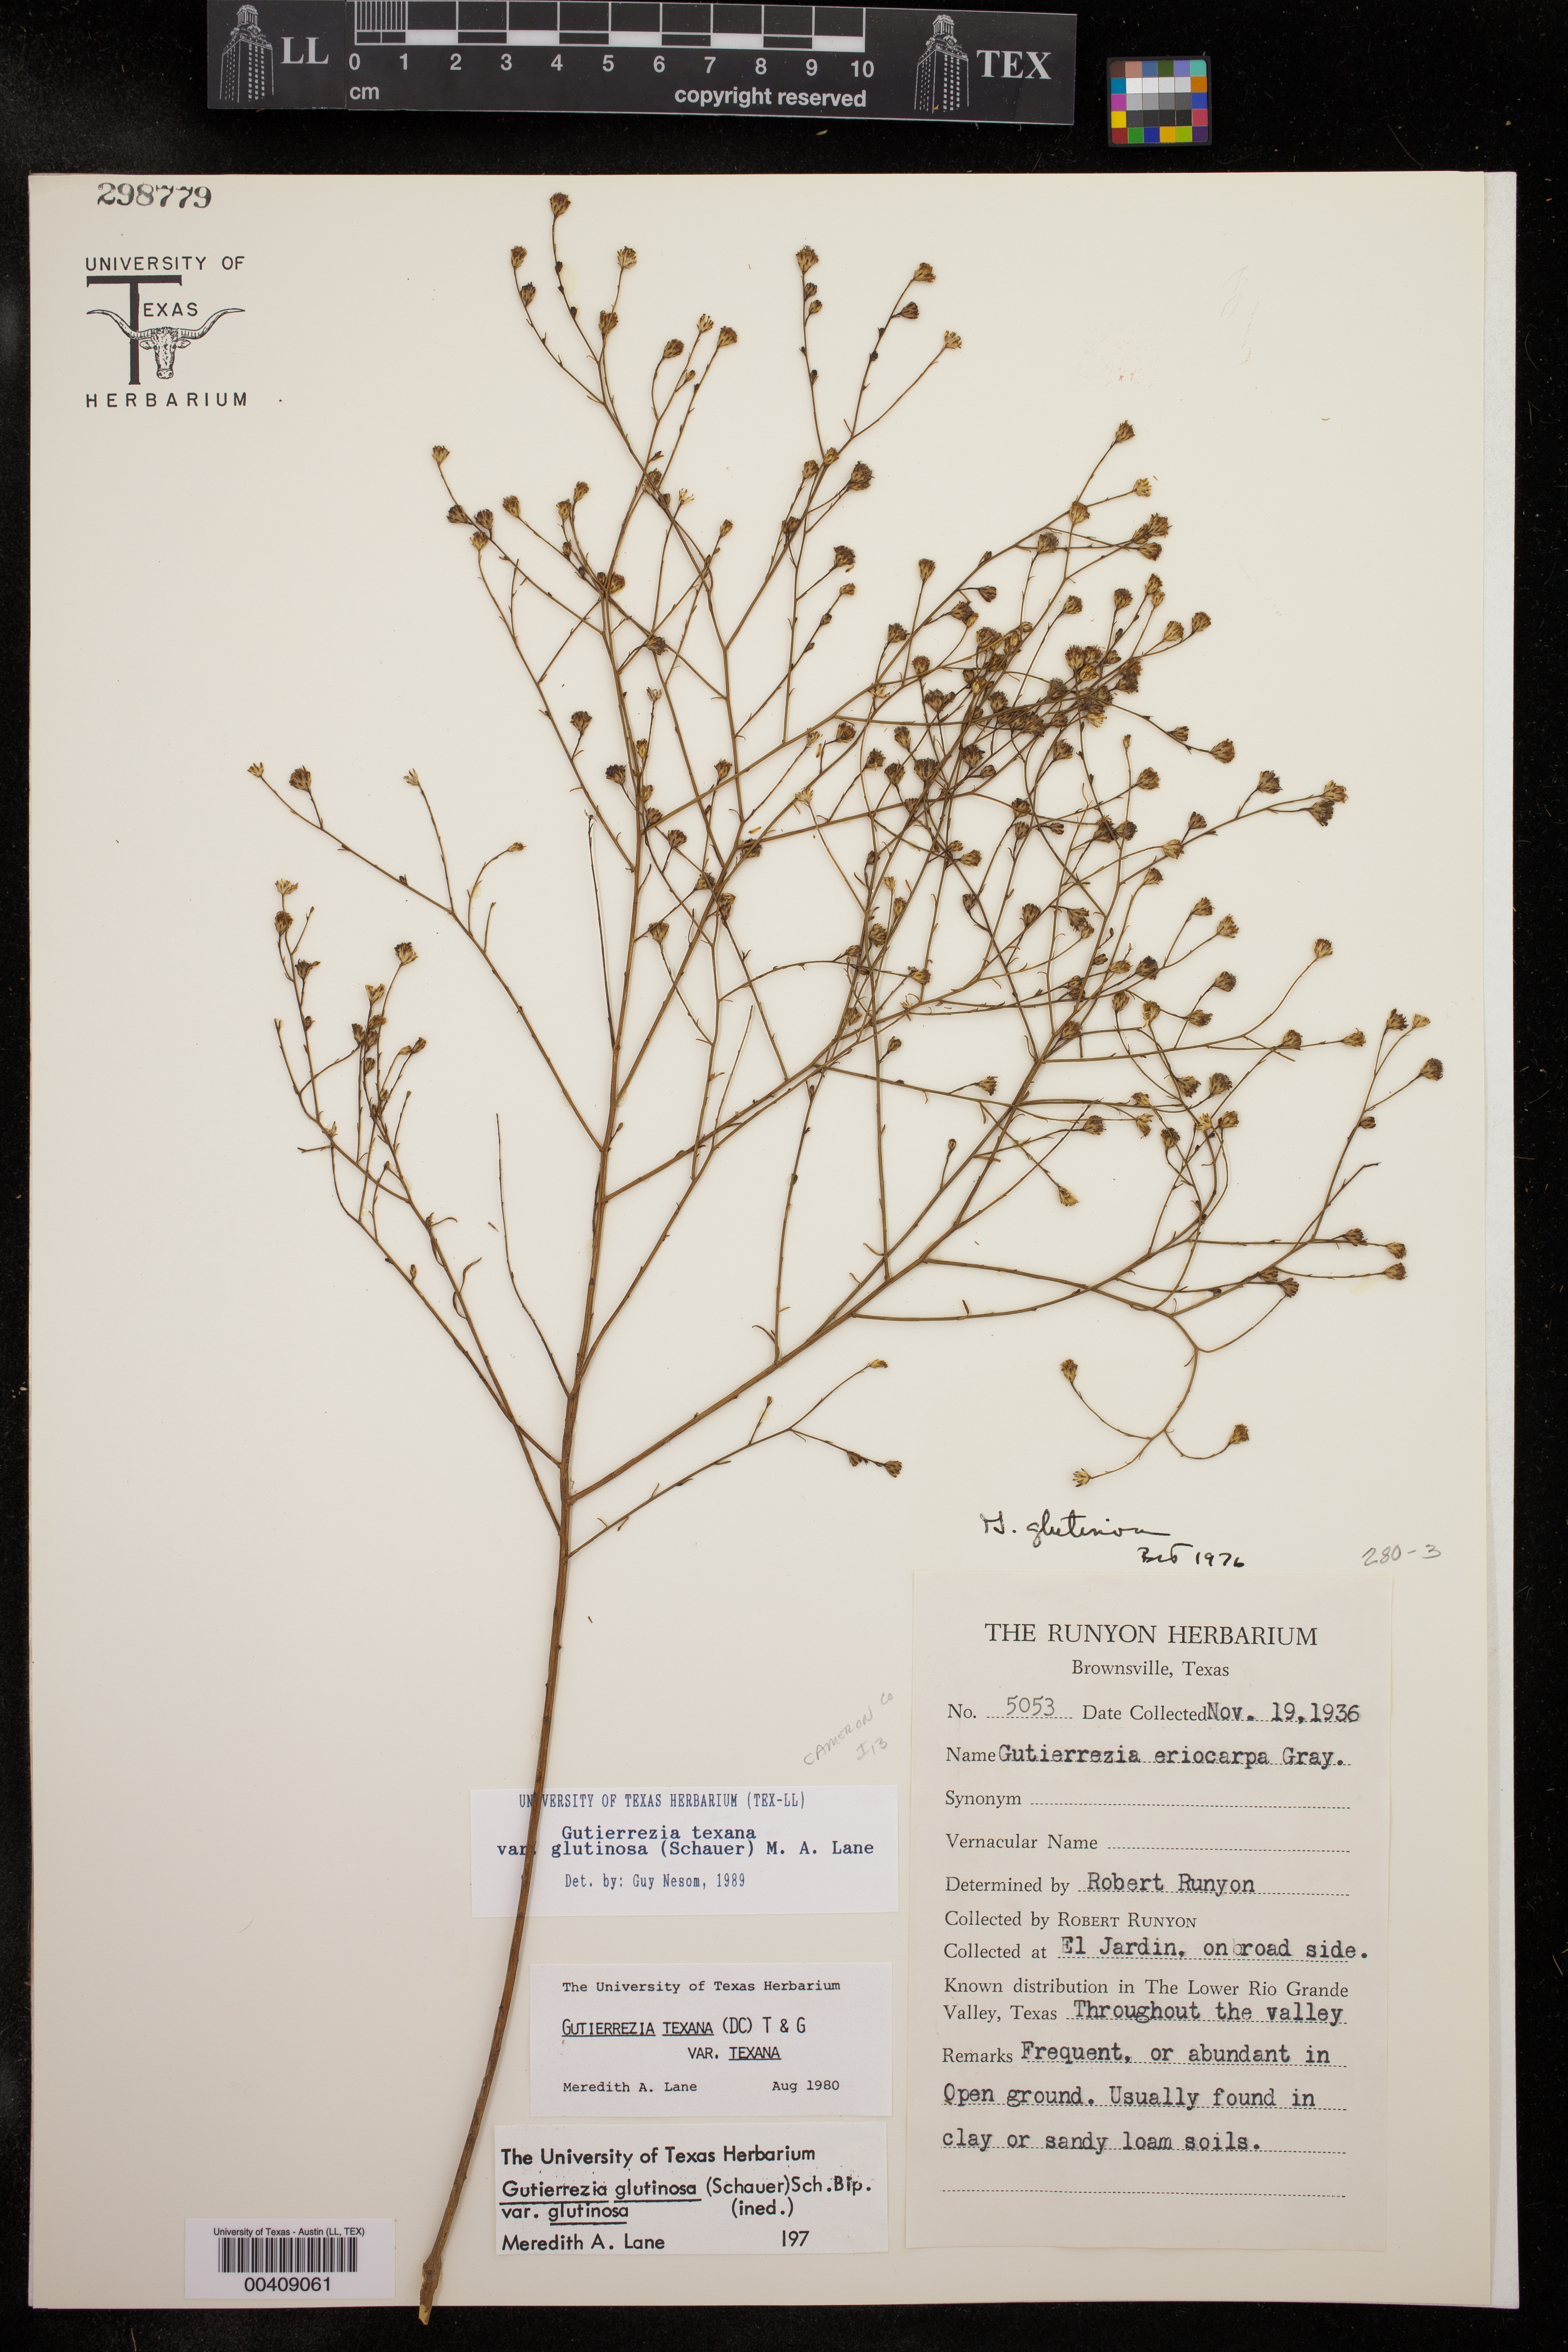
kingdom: Plantae
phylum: Tracheophyta
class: Magnoliopsida
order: Asterales
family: Asteraceae
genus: Gutierrezia
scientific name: Gutierrezia texana
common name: Texas snakeweed
